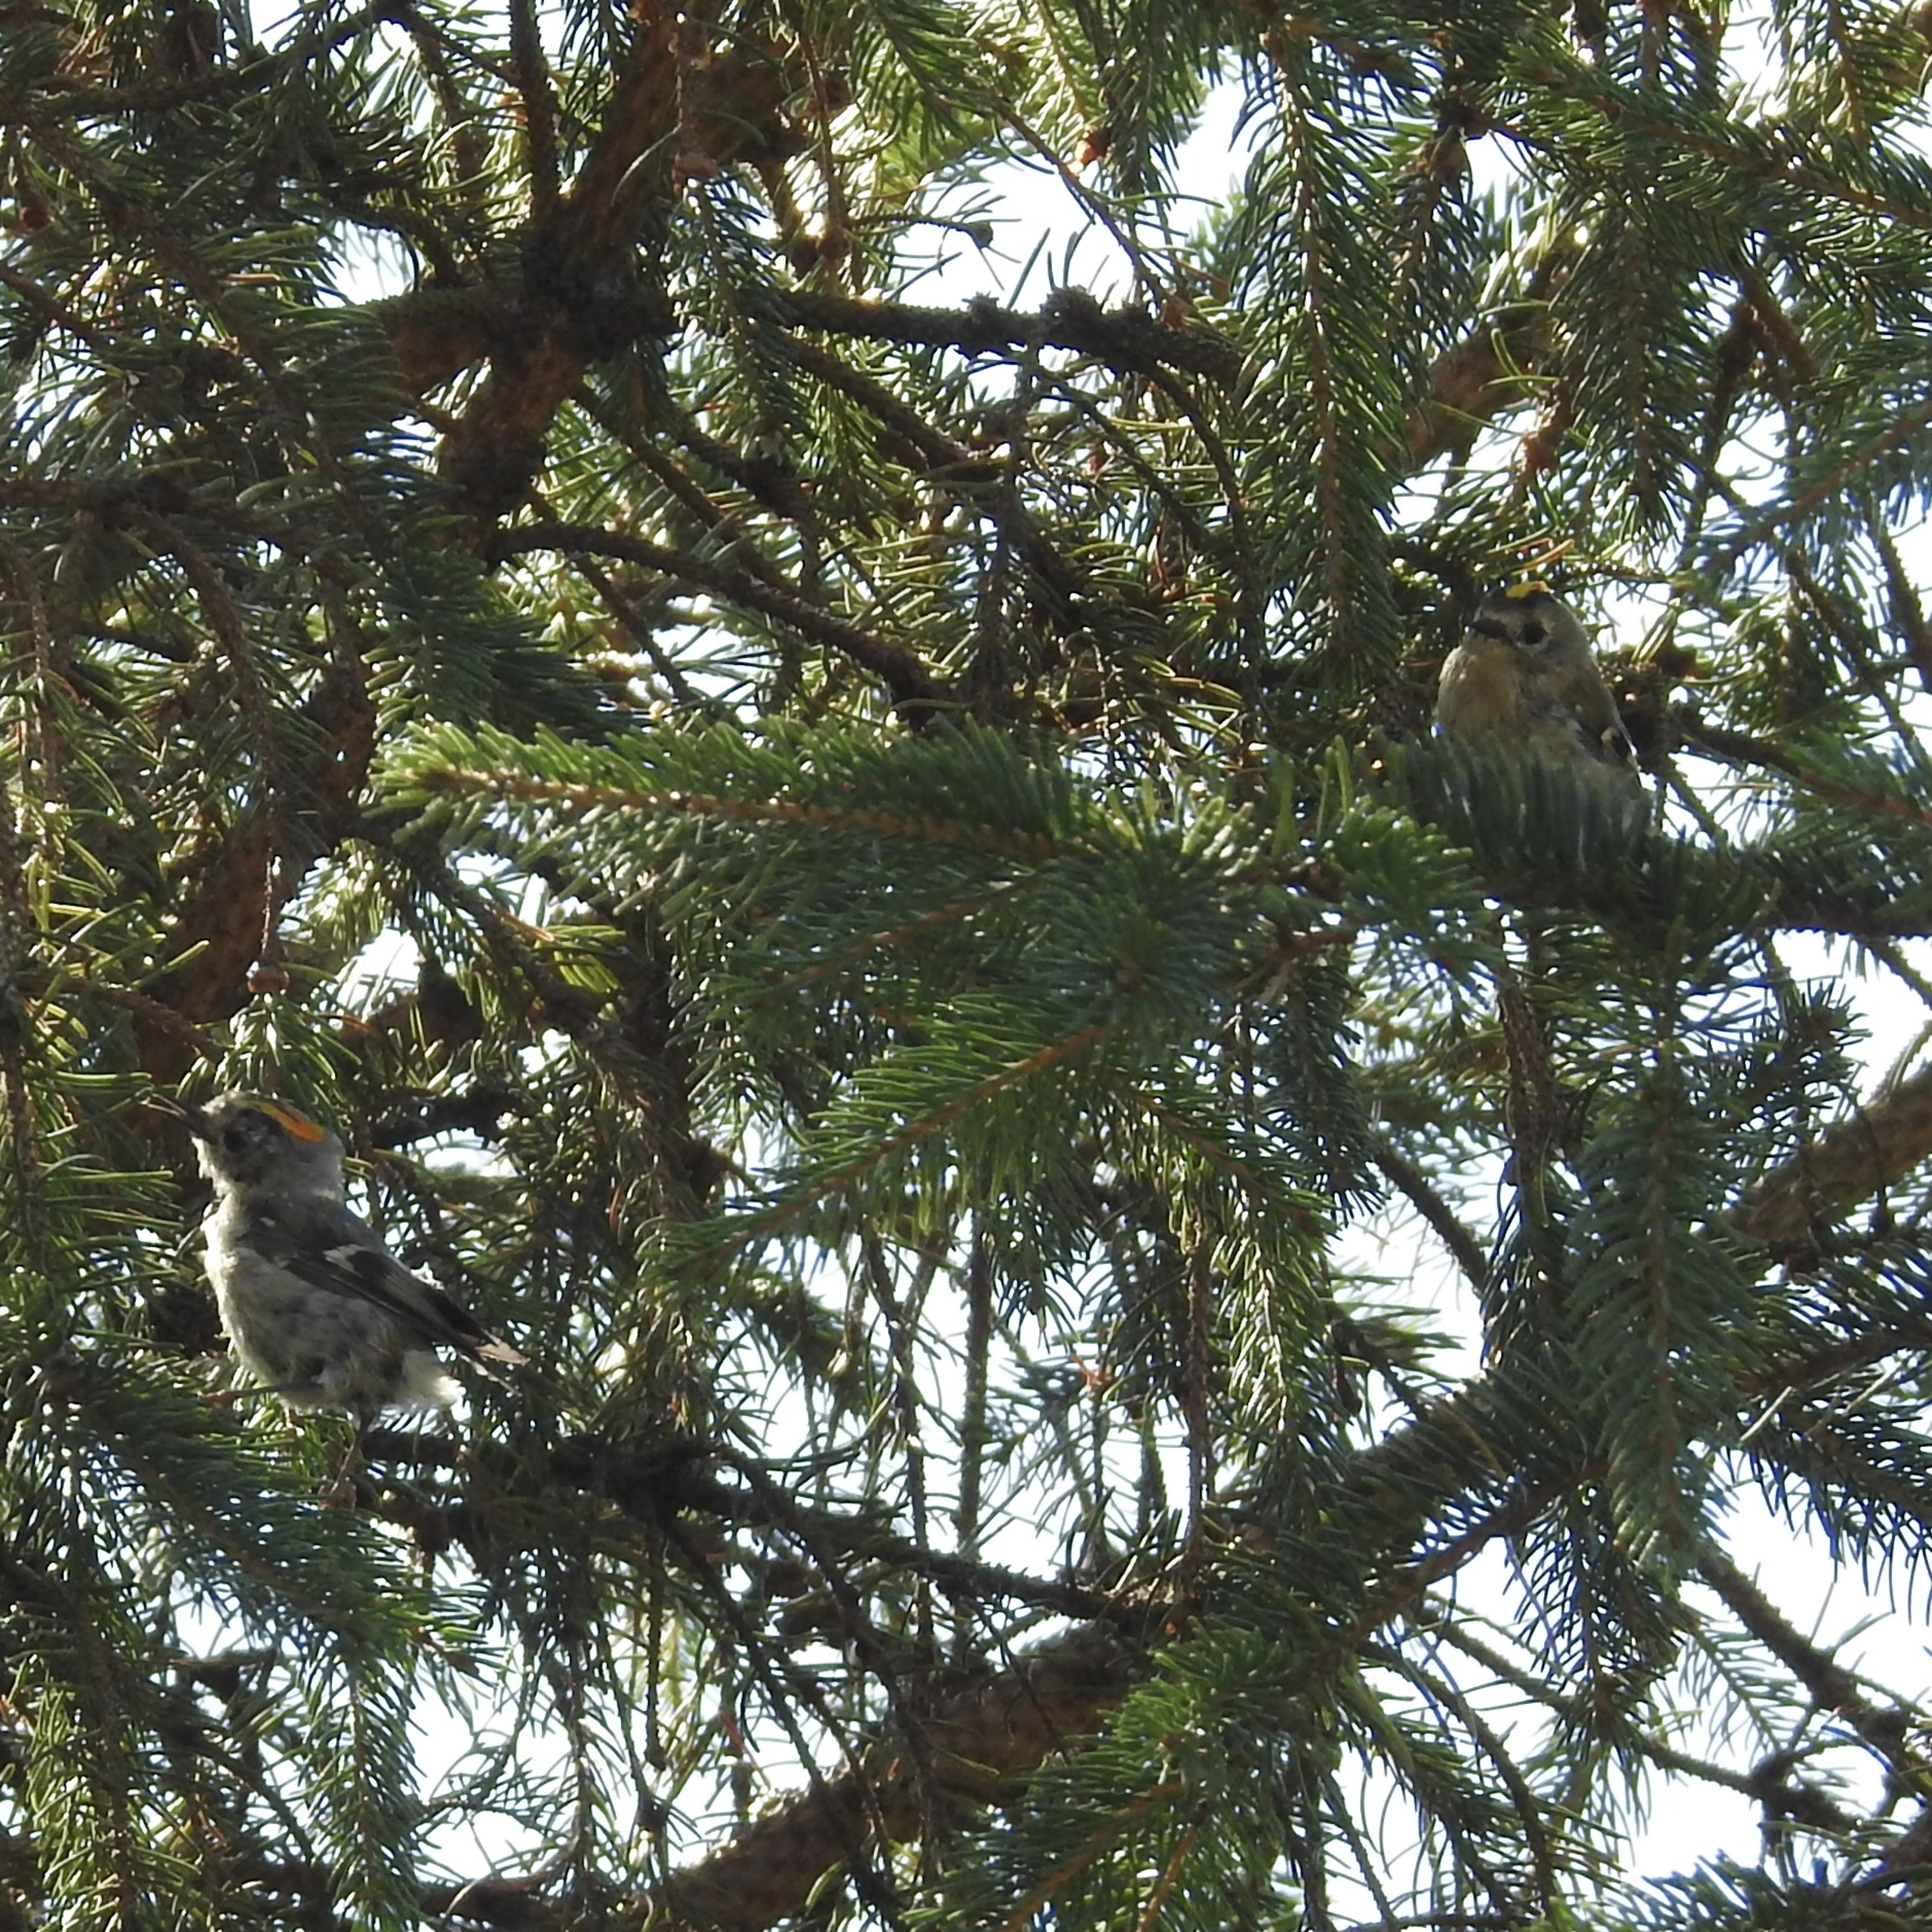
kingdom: Animalia
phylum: Chordata
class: Aves
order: Passeriformes
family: Regulidae
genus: Regulus
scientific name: Regulus regulus
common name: Fuglekonge
